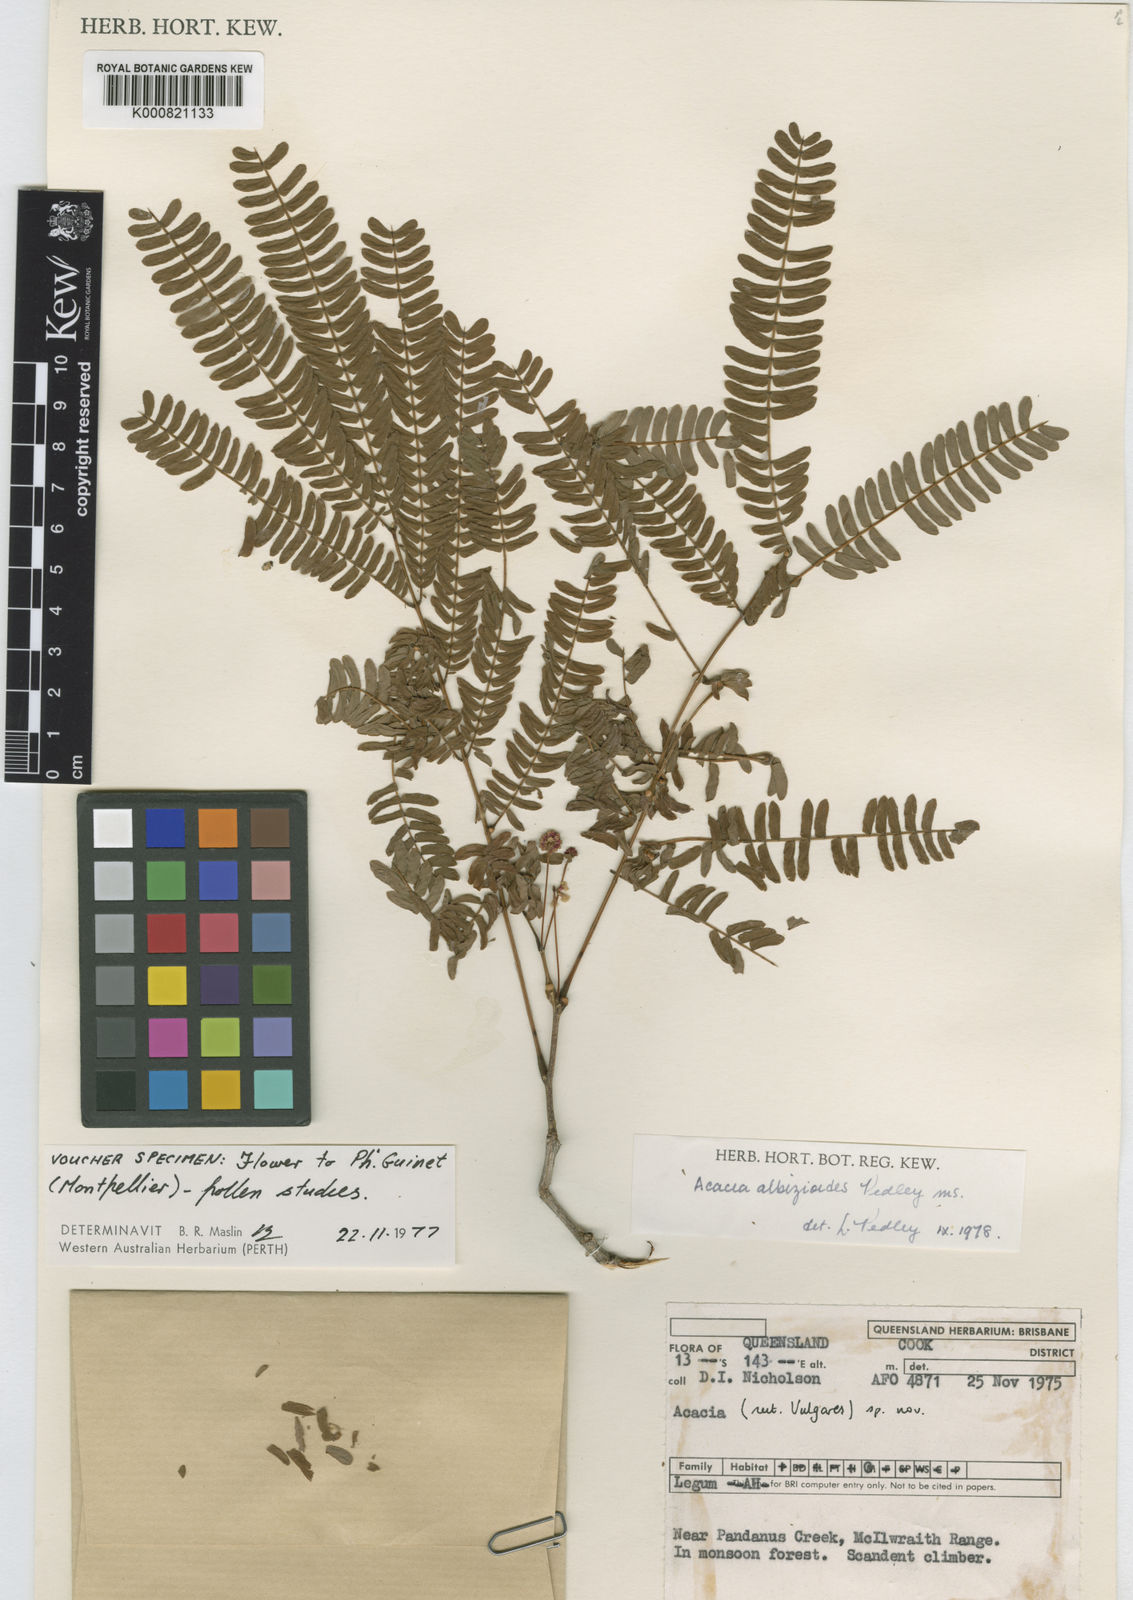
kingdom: Plantae
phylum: Tracheophyta
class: Magnoliopsida
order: Fabales
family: Fabaceae
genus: Senegalia
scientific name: Senegalia albizioides
